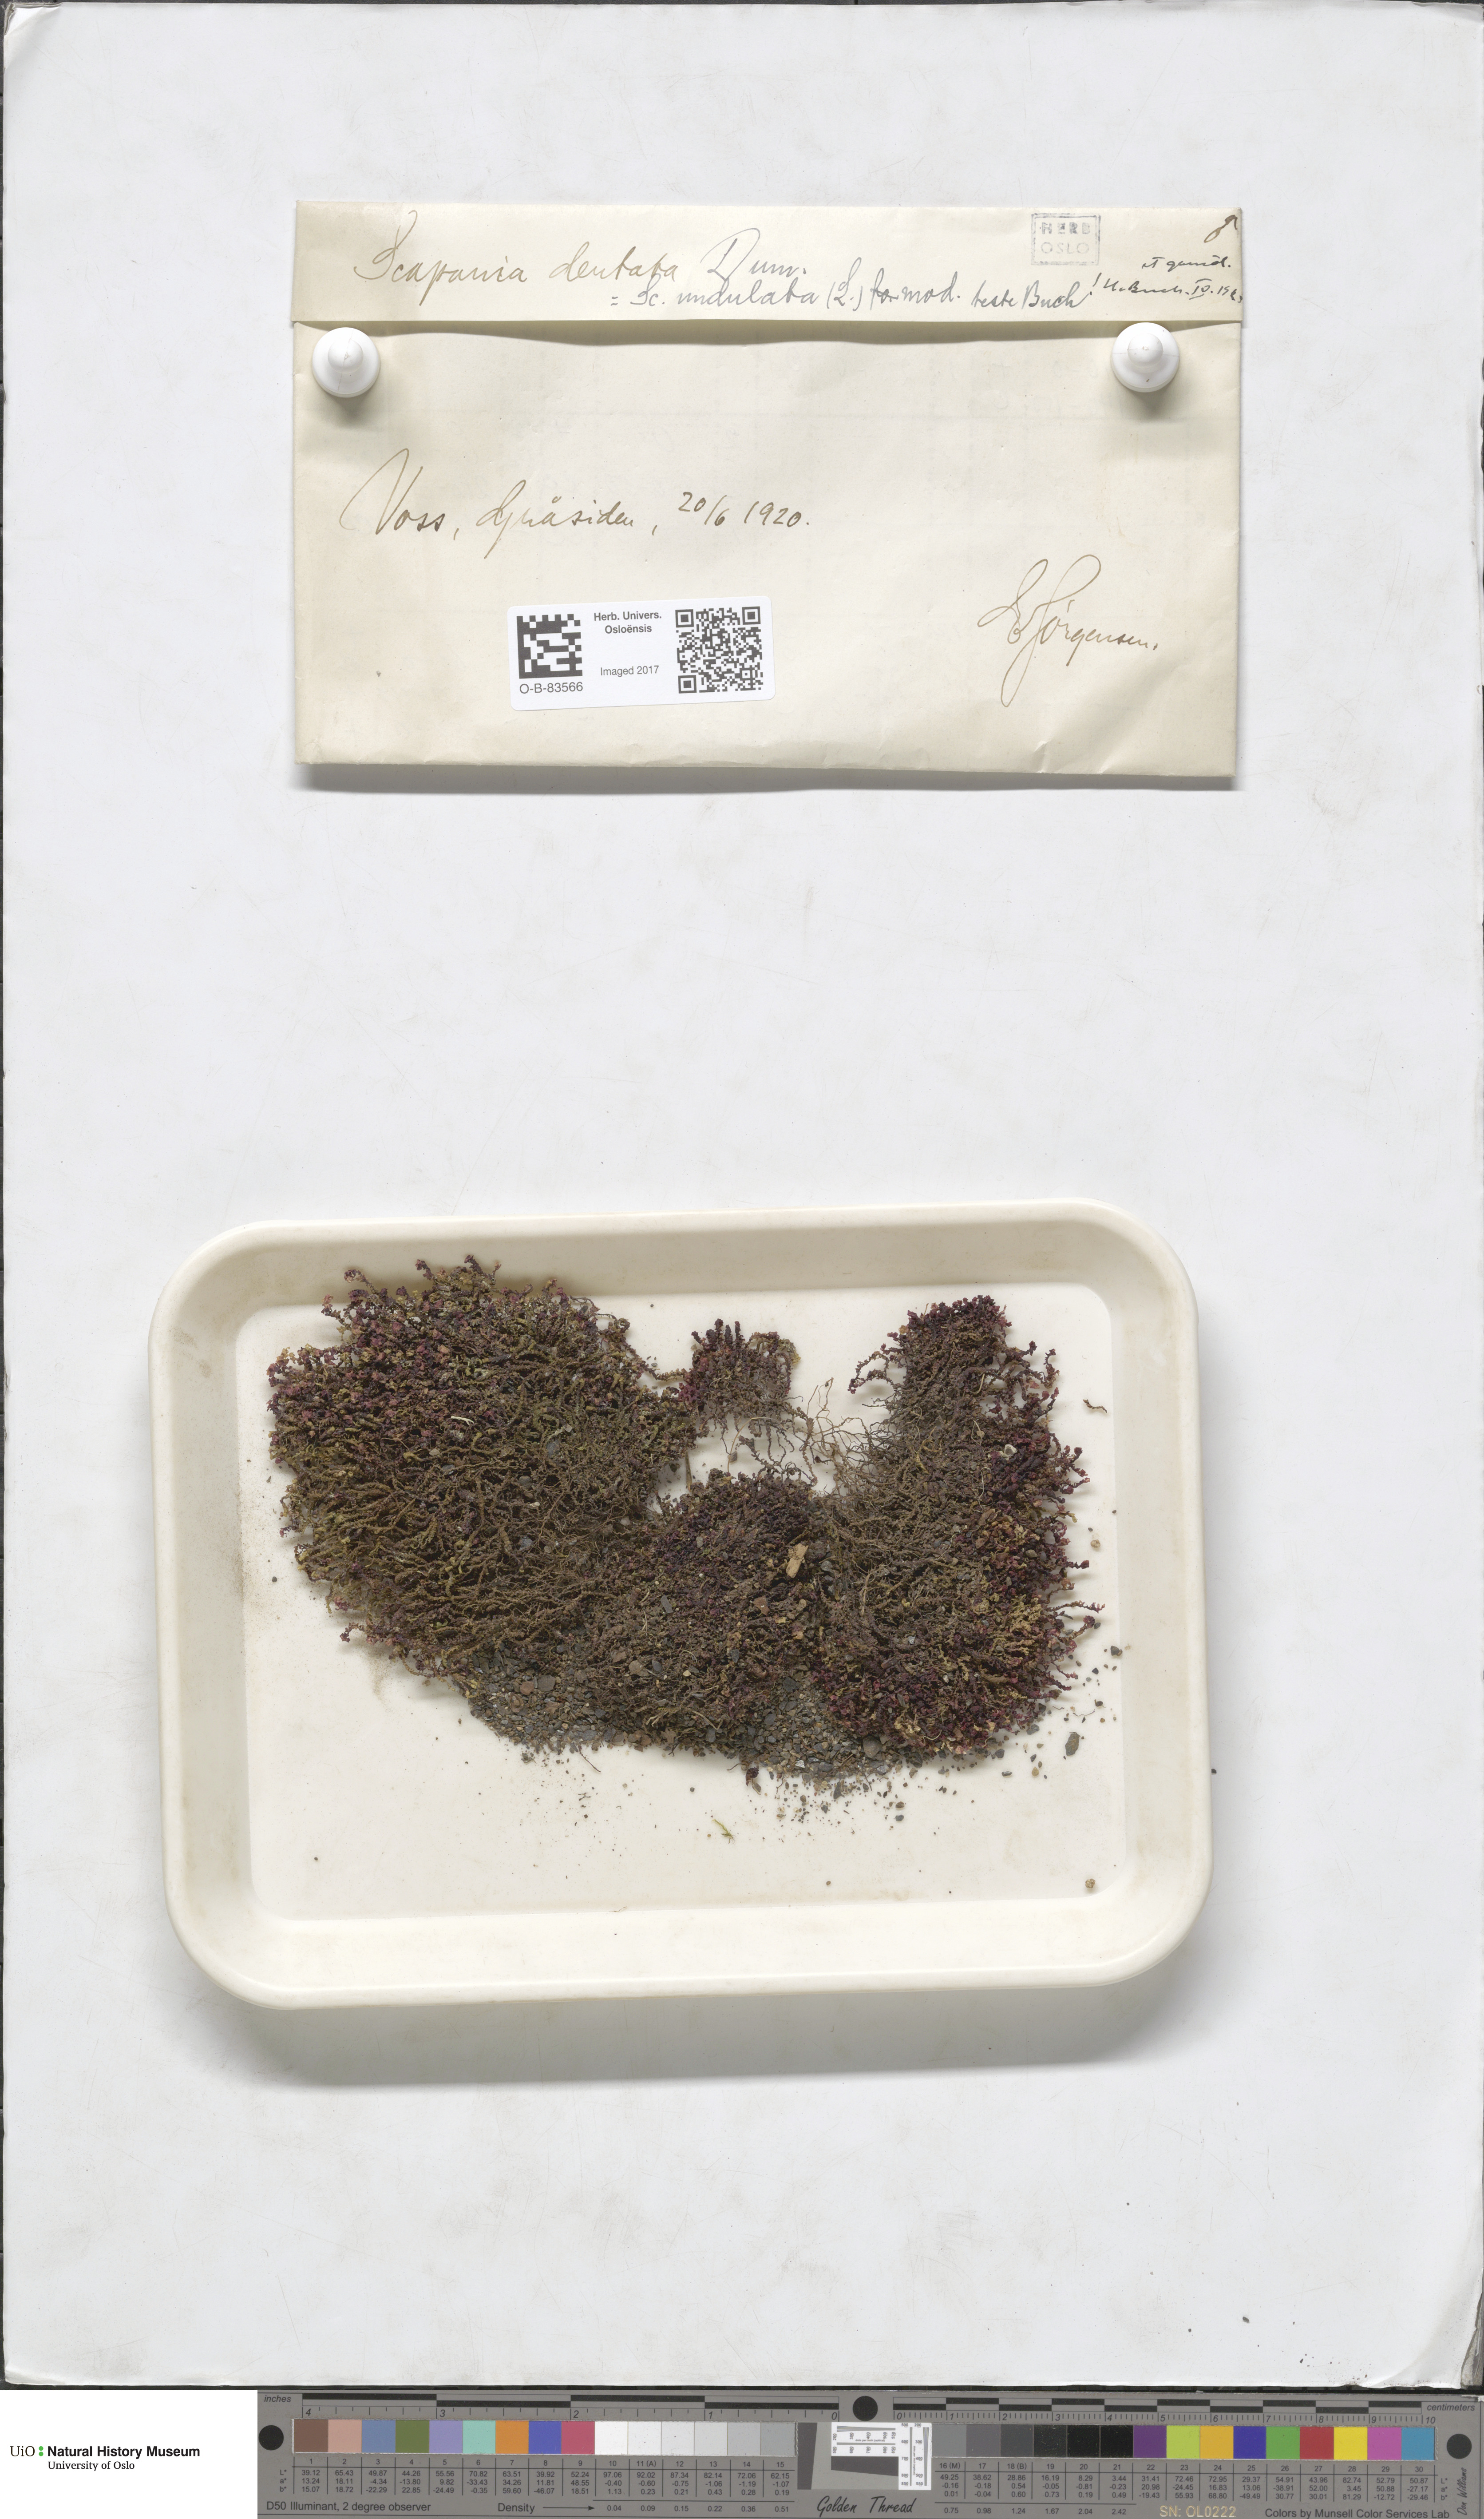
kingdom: Plantae
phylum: Marchantiophyta
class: Jungermanniopsida
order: Jungermanniales
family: Scapaniaceae
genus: Scapania
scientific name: Scapania undulata
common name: Water earwort
